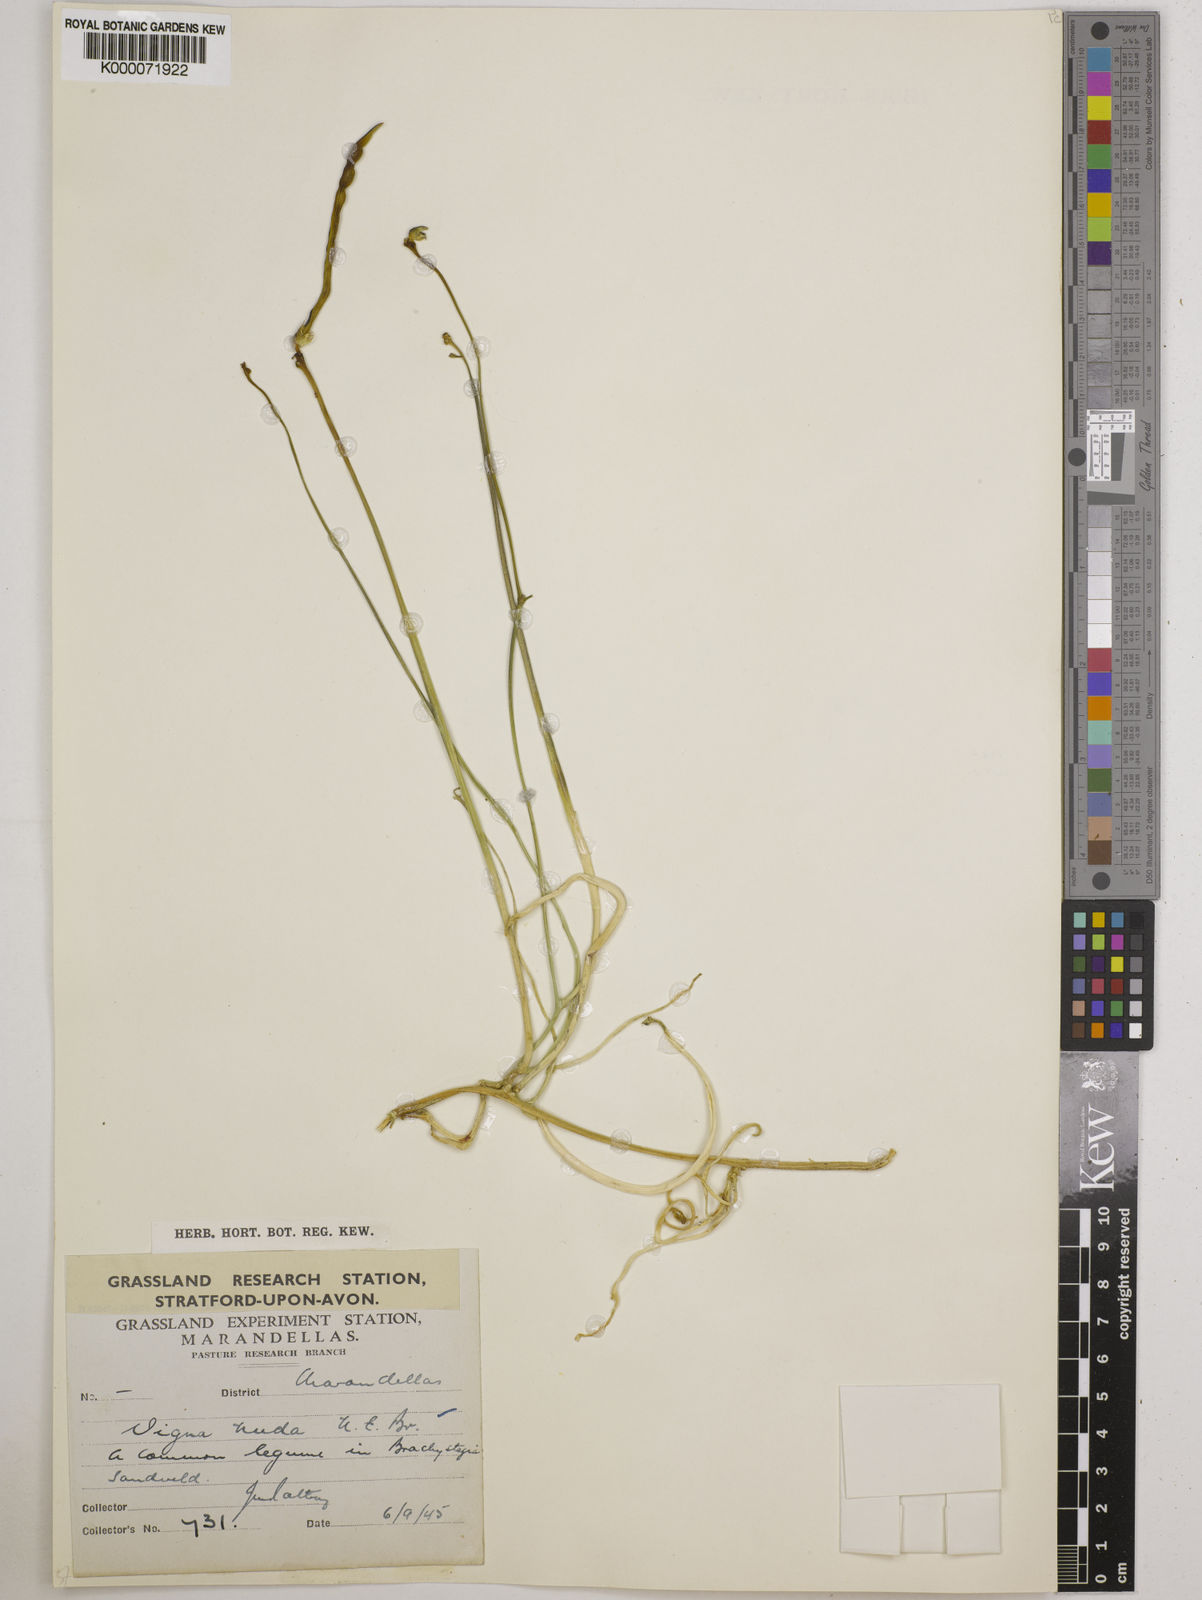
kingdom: Plantae
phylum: Tracheophyta
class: Magnoliopsida
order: Fabales
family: Fabaceae
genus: Vigna
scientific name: Vigna antunesii
